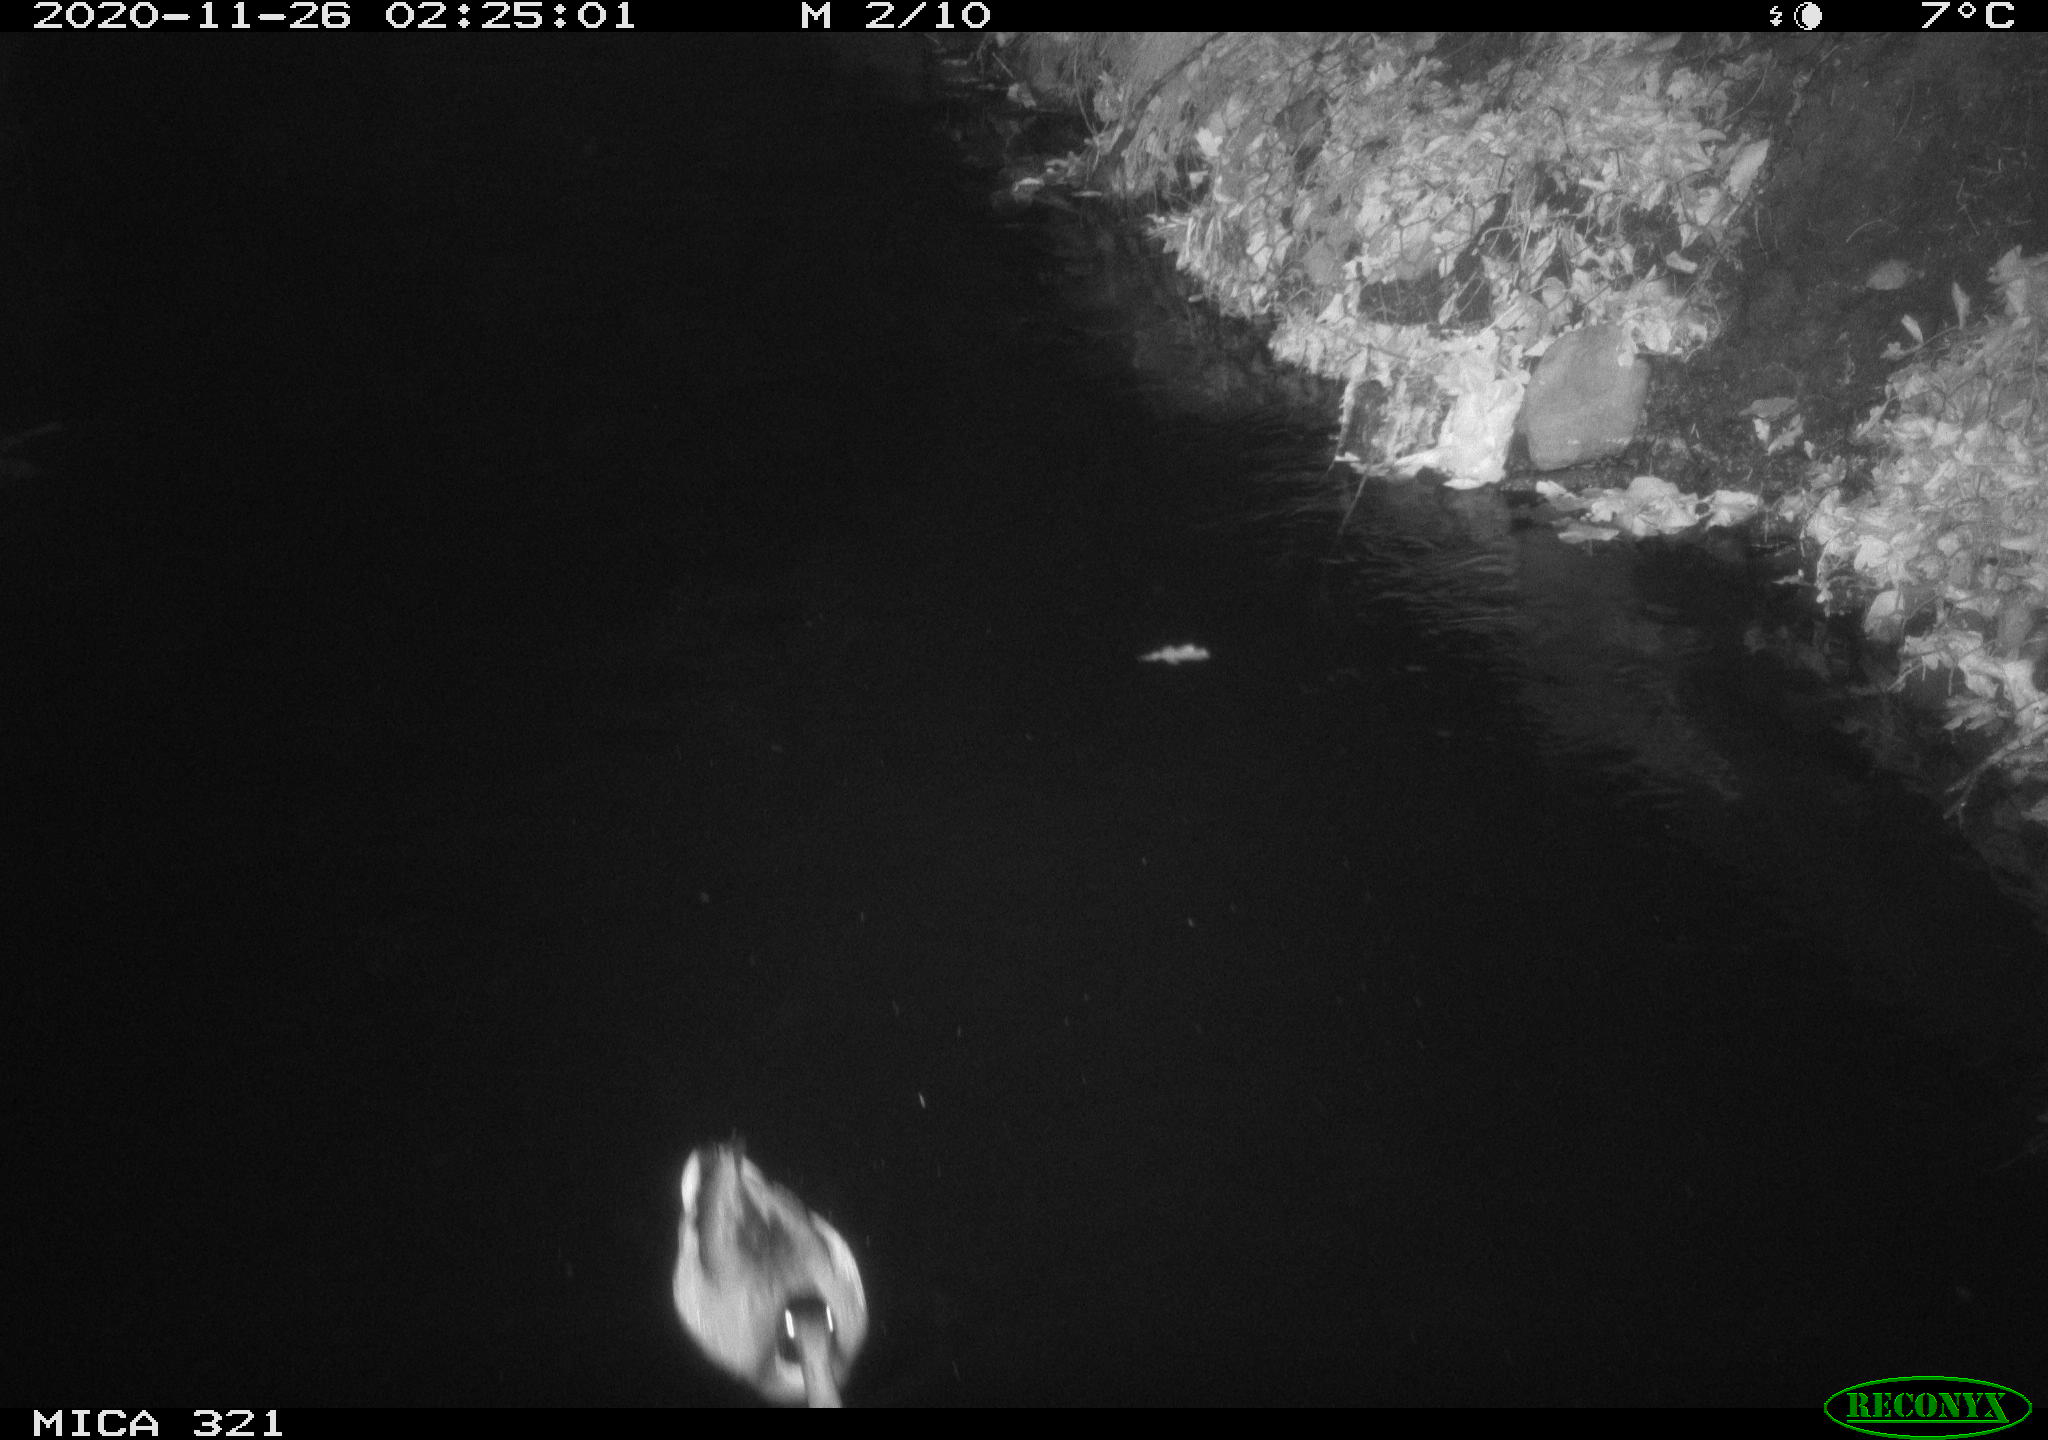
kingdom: Animalia
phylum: Chordata
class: Aves
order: Anseriformes
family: Anatidae
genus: Anas
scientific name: Anas platyrhynchos
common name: Mallard
